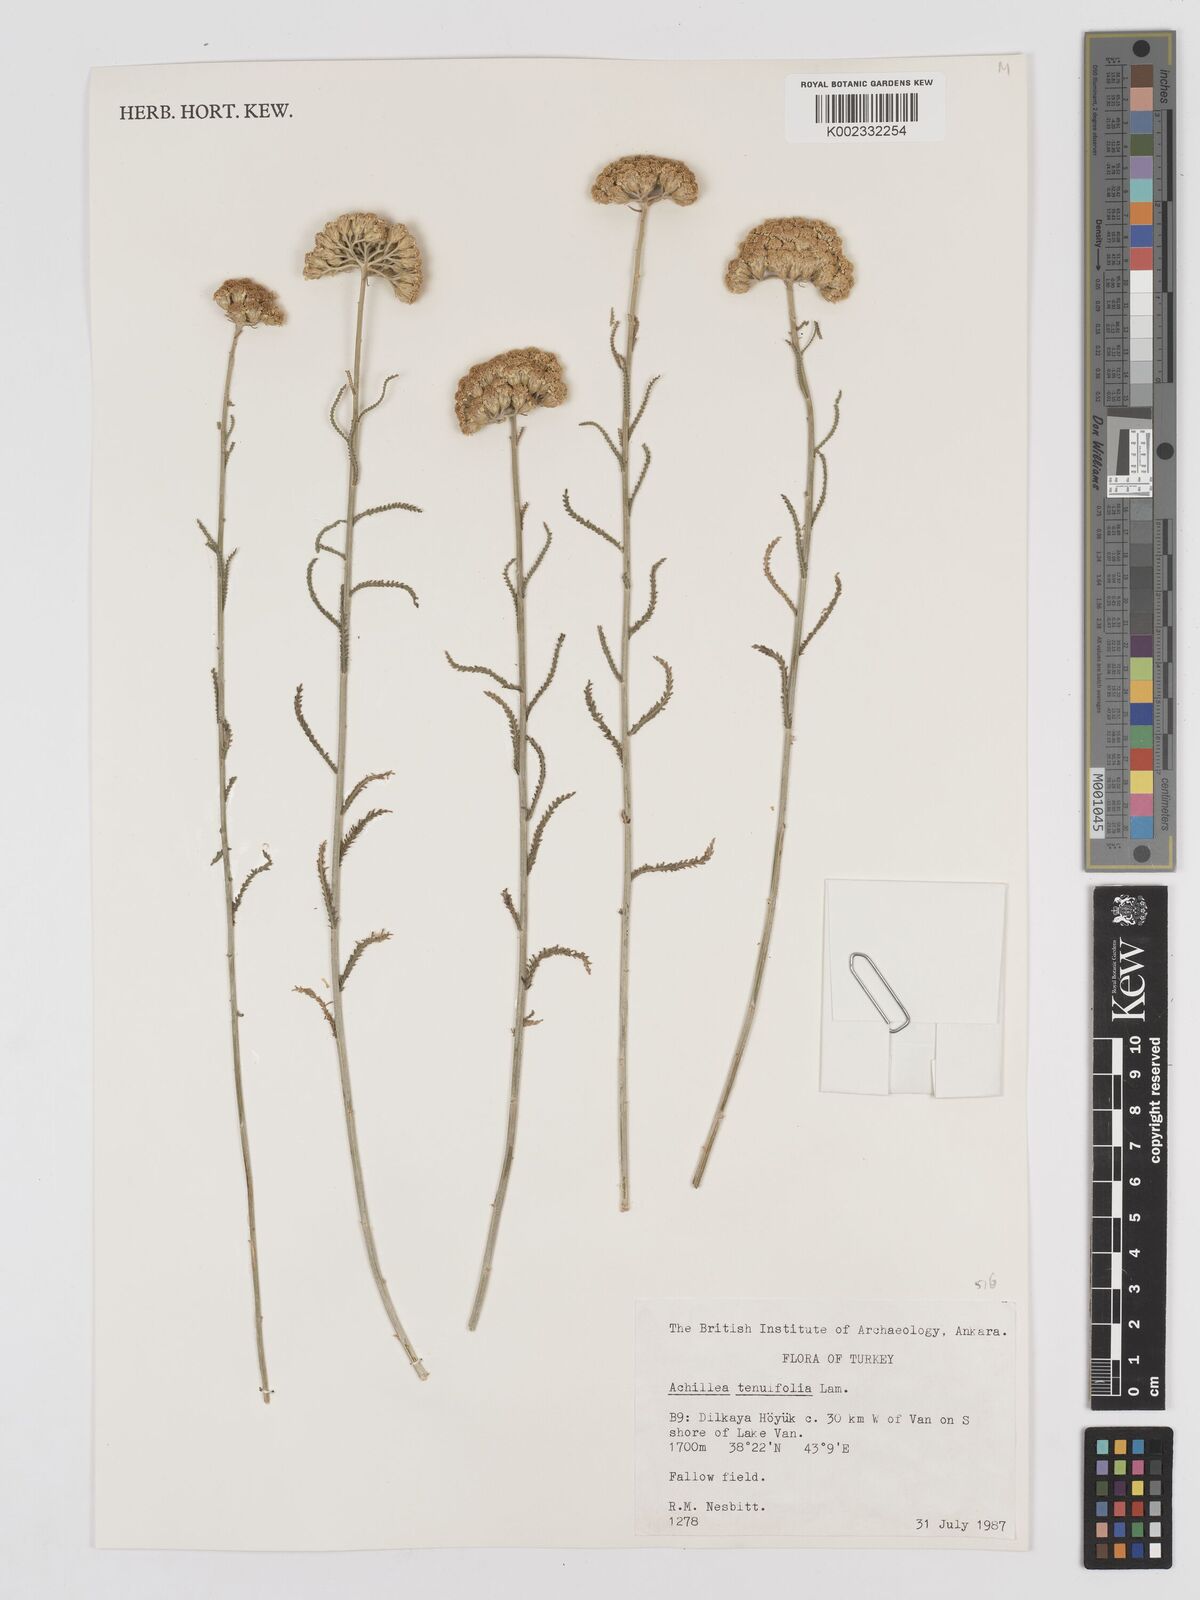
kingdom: Plantae
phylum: Tracheophyta
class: Magnoliopsida
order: Asterales
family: Asteraceae
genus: Achillea
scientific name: Achillea tenuifolia
